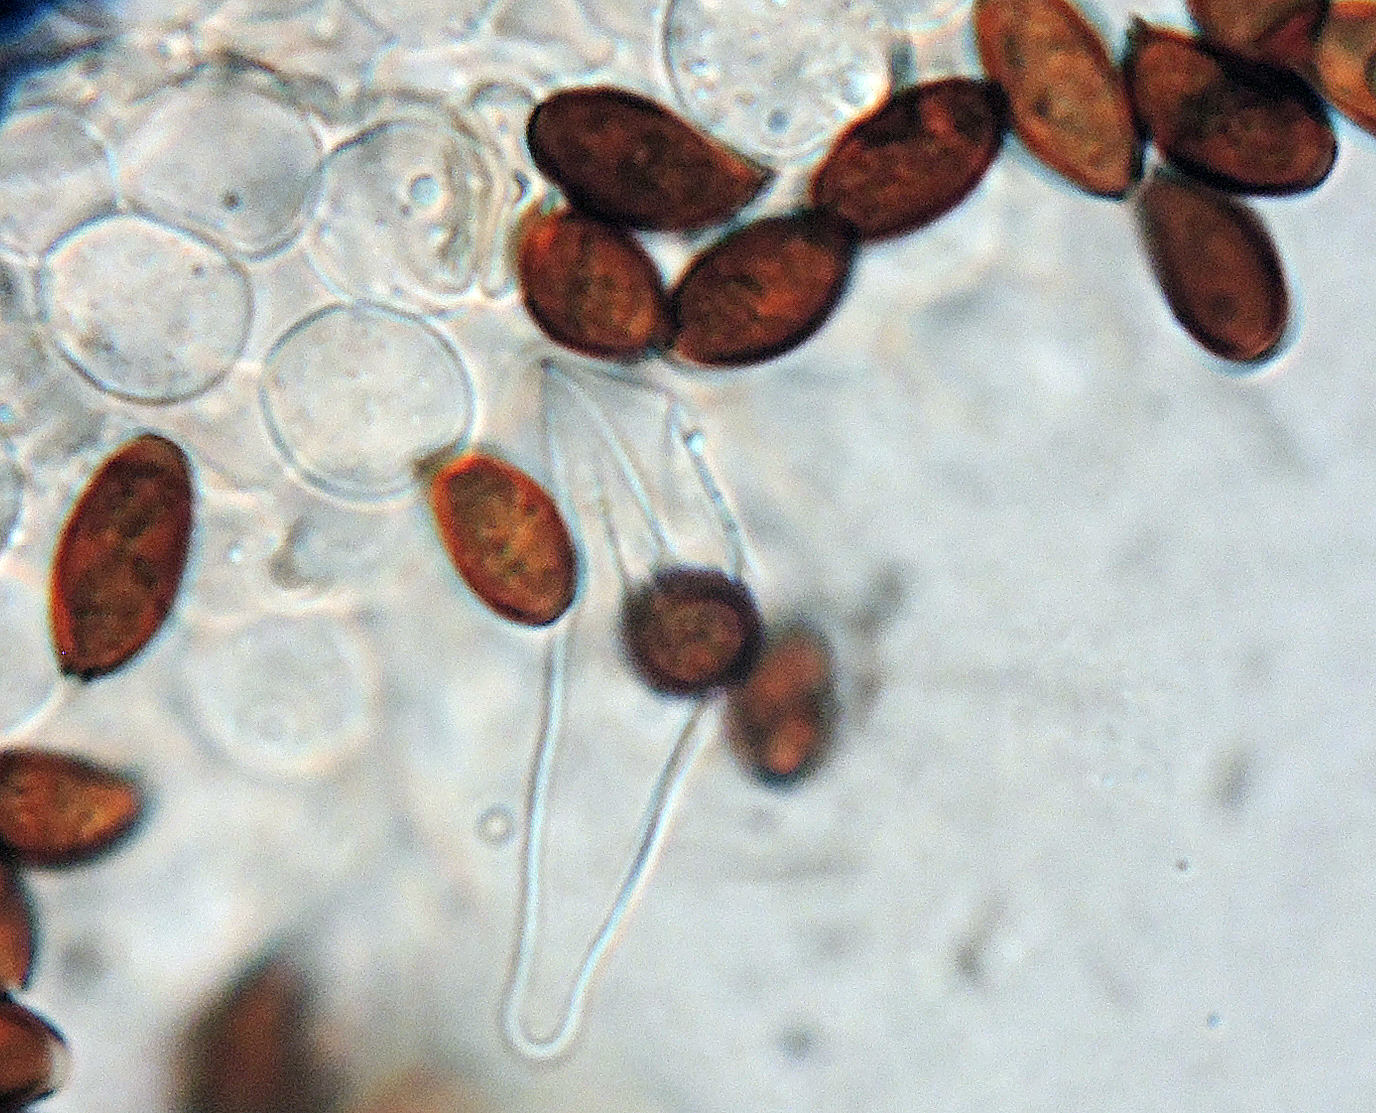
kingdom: Fungi
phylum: Basidiomycota
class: Agaricomycetes
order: Agaricales
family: Psathyrellaceae
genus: Psathyrella
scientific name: Psathyrella flexispora
